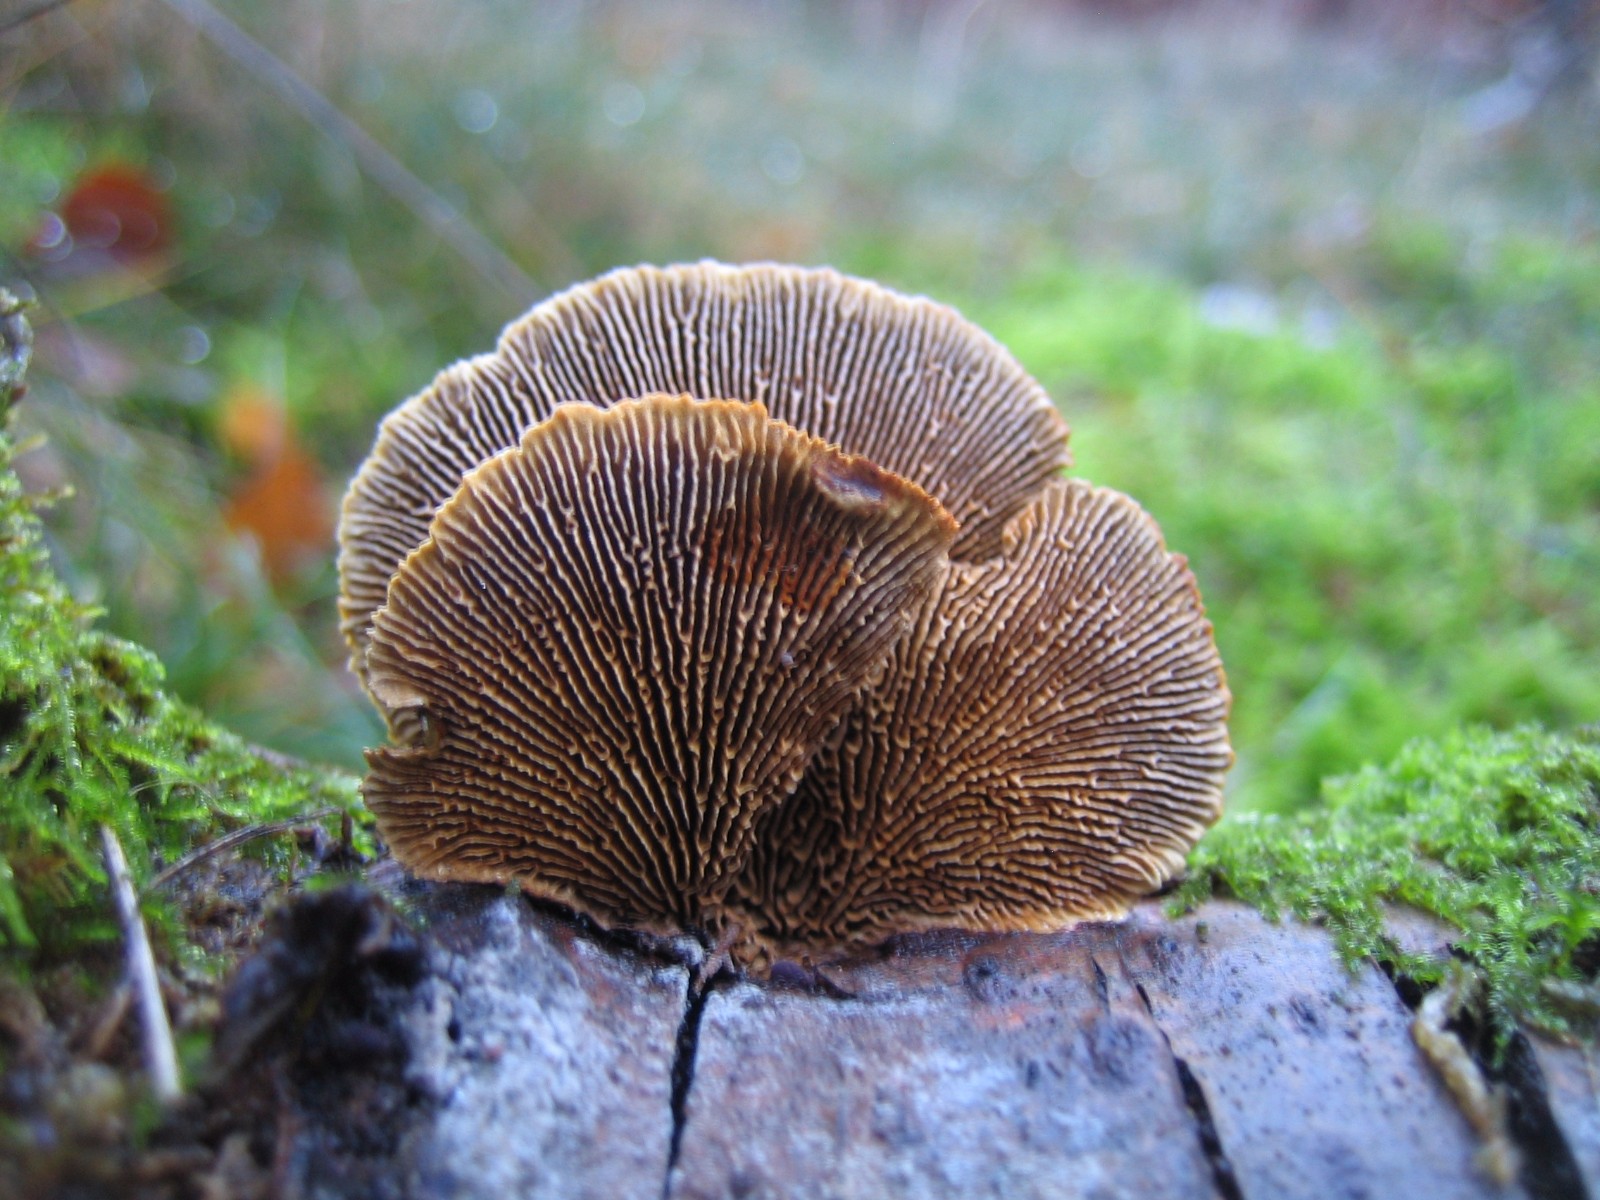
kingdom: Fungi
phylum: Basidiomycota
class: Agaricomycetes
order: Gloeophyllales
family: Gloeophyllaceae
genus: Gloeophyllum
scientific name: Gloeophyllum sepiarium
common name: fyrre-korkhat
